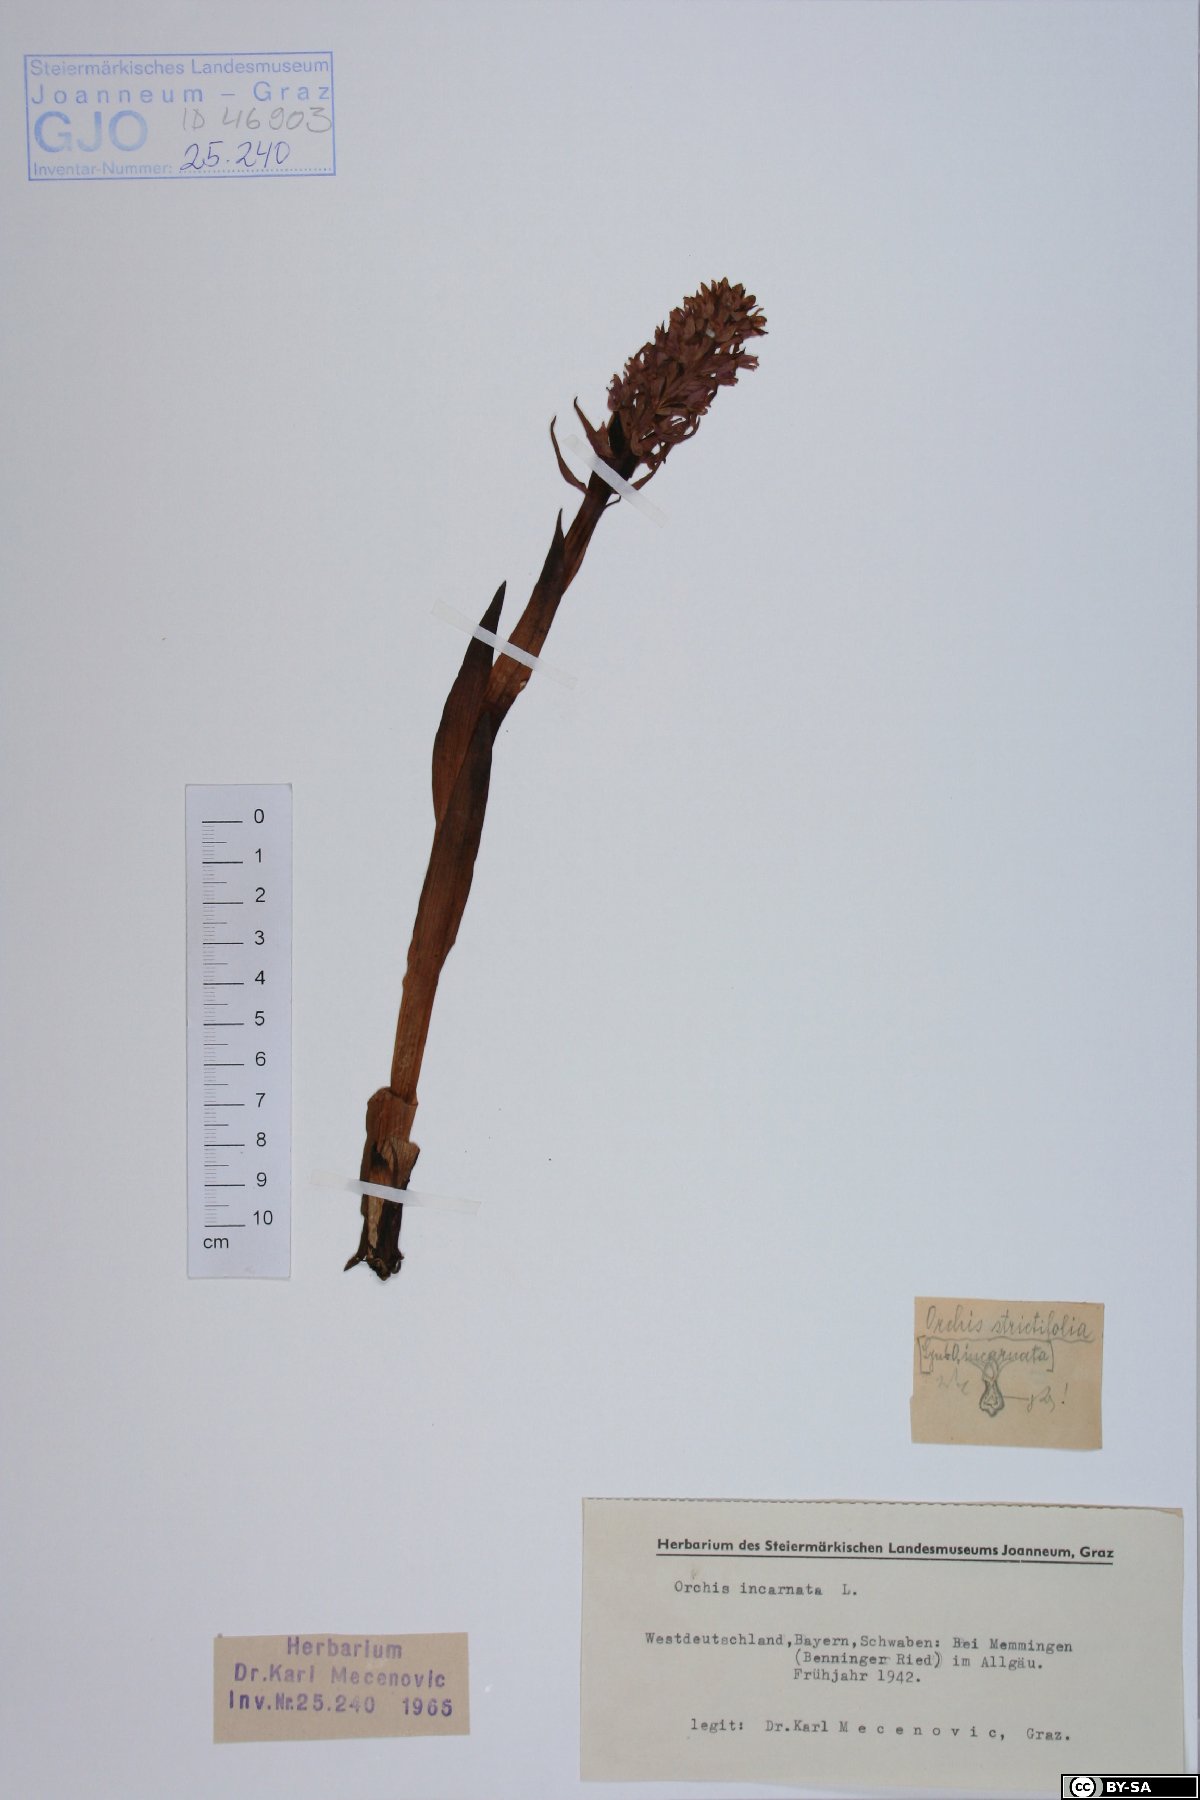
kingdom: Plantae
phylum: Tracheophyta
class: Liliopsida
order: Asparagales
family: Orchidaceae
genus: Dactylorhiza
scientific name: Dactylorhiza incarnata
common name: Early marsh-orchid
